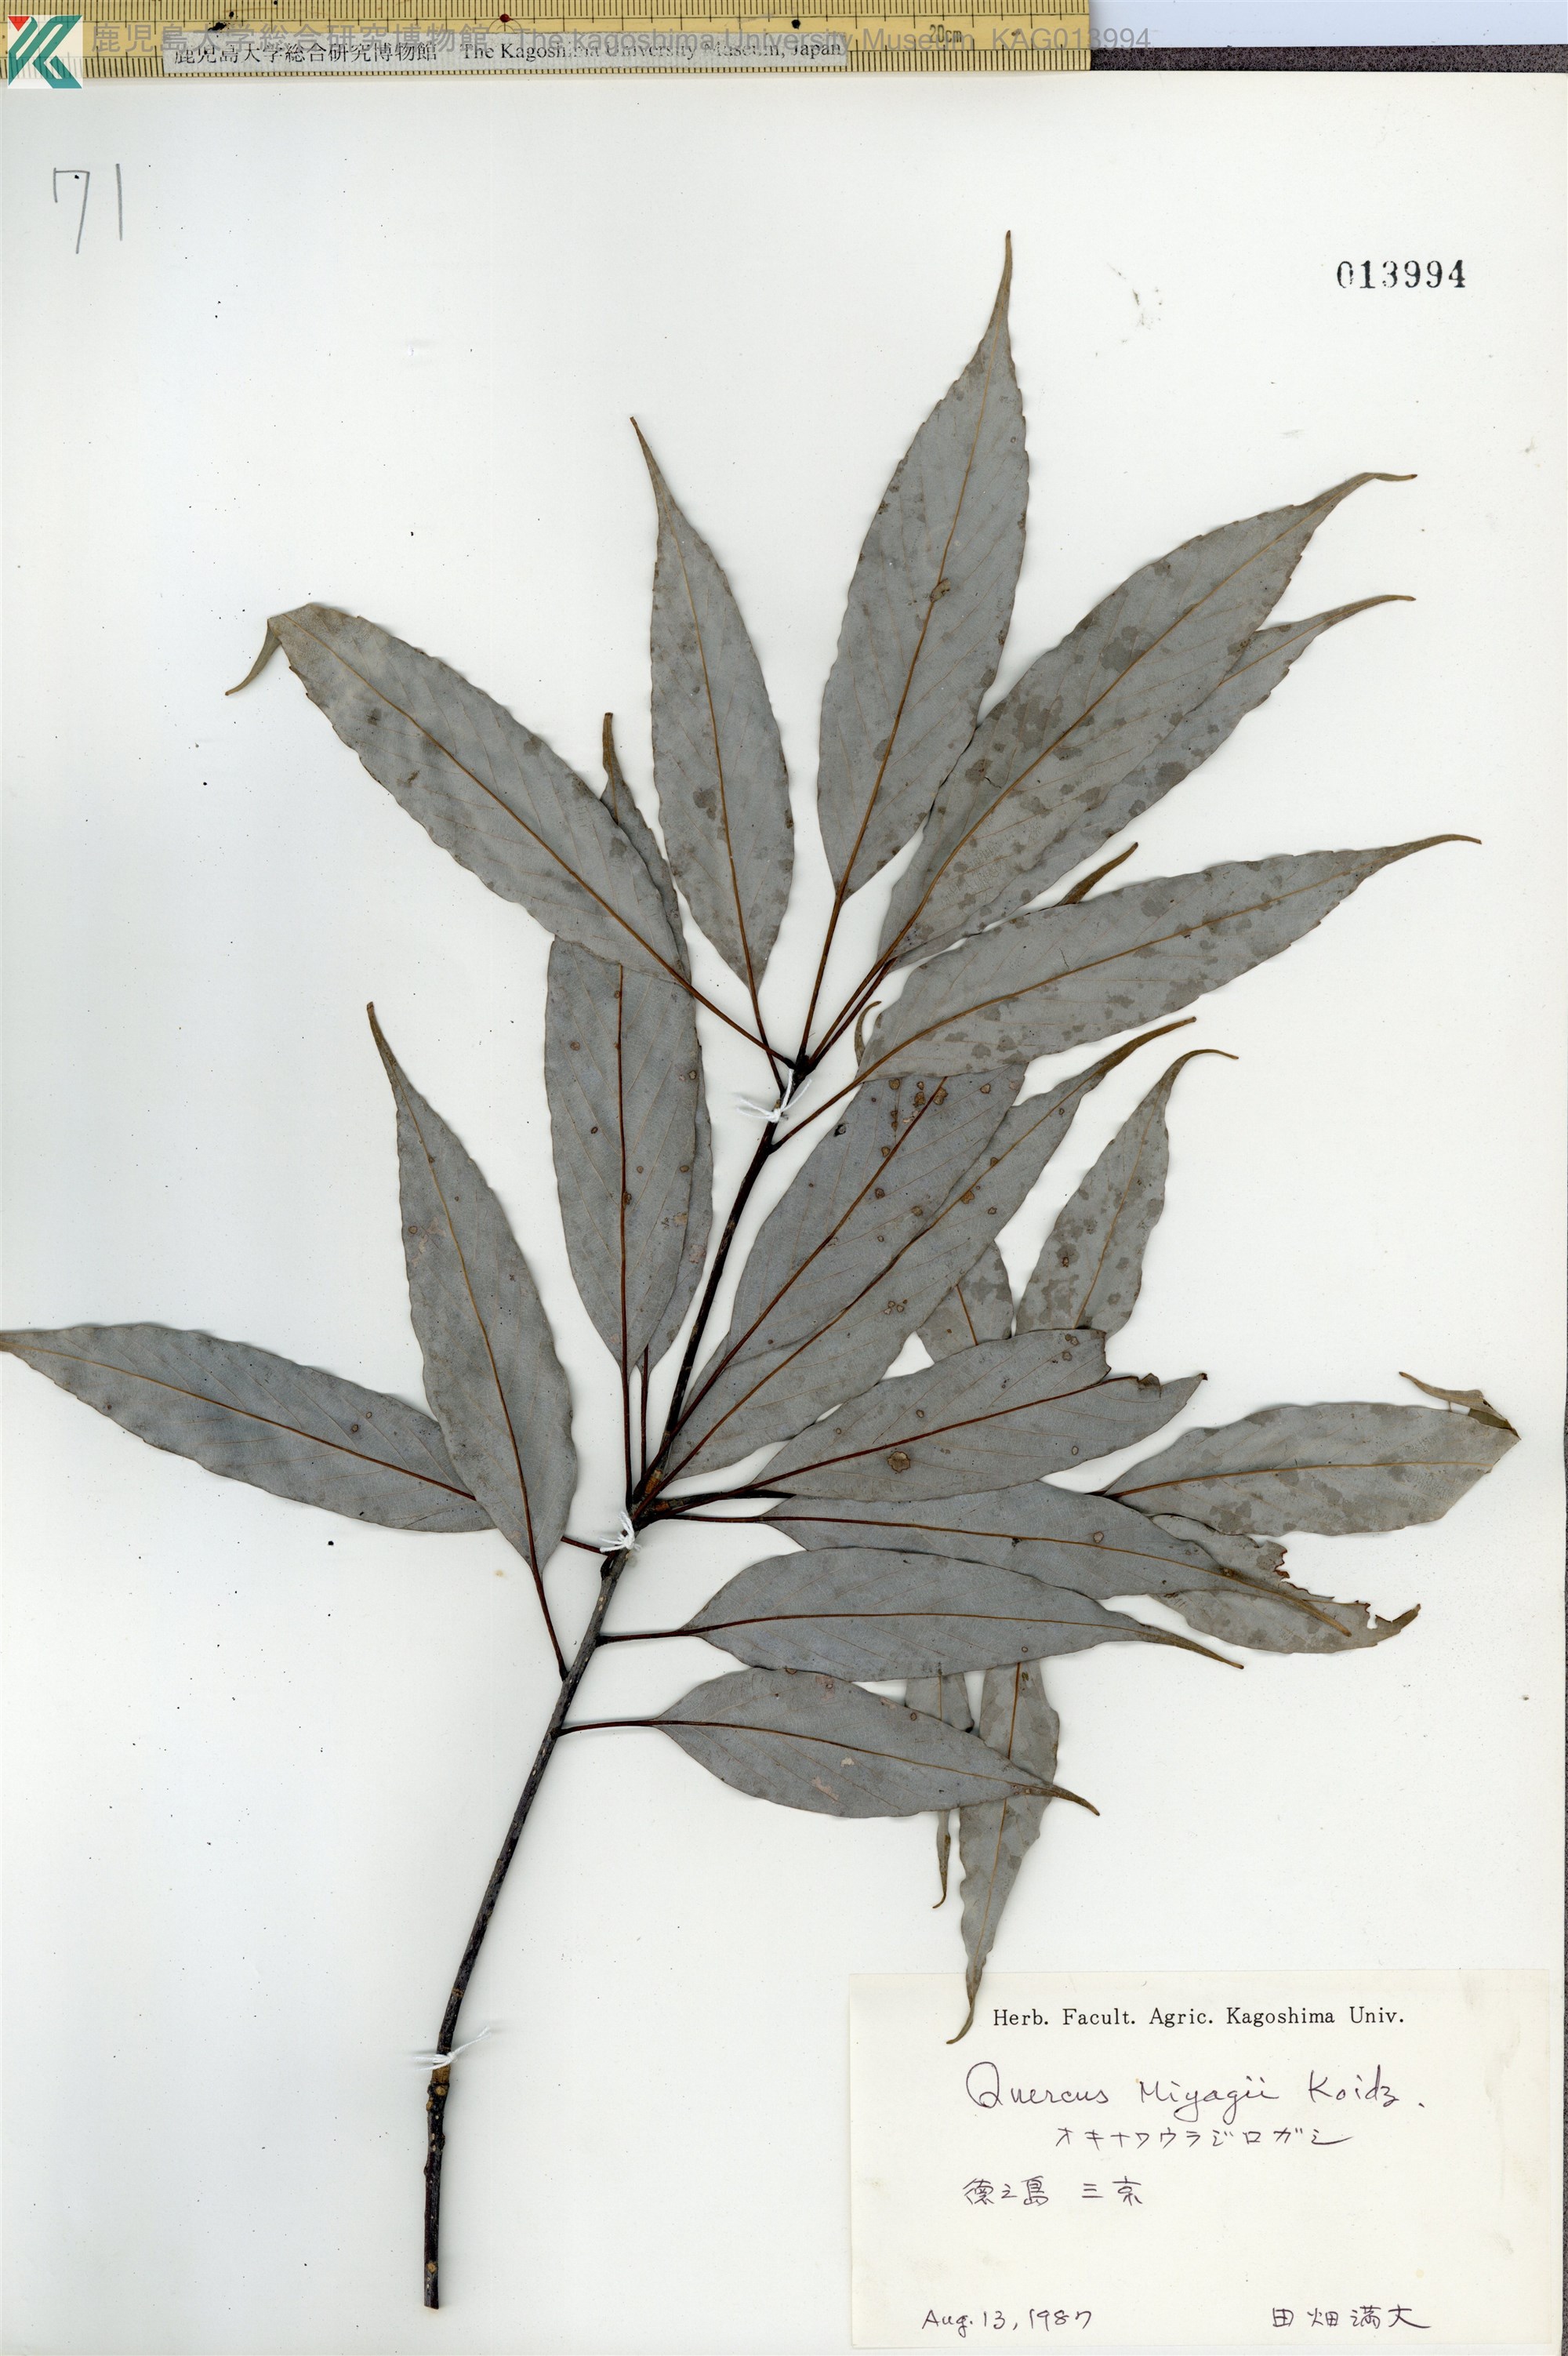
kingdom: Plantae
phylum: Tracheophyta
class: Magnoliopsida
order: Fagales
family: Fagaceae
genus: Quercus
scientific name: Quercus miyagii
